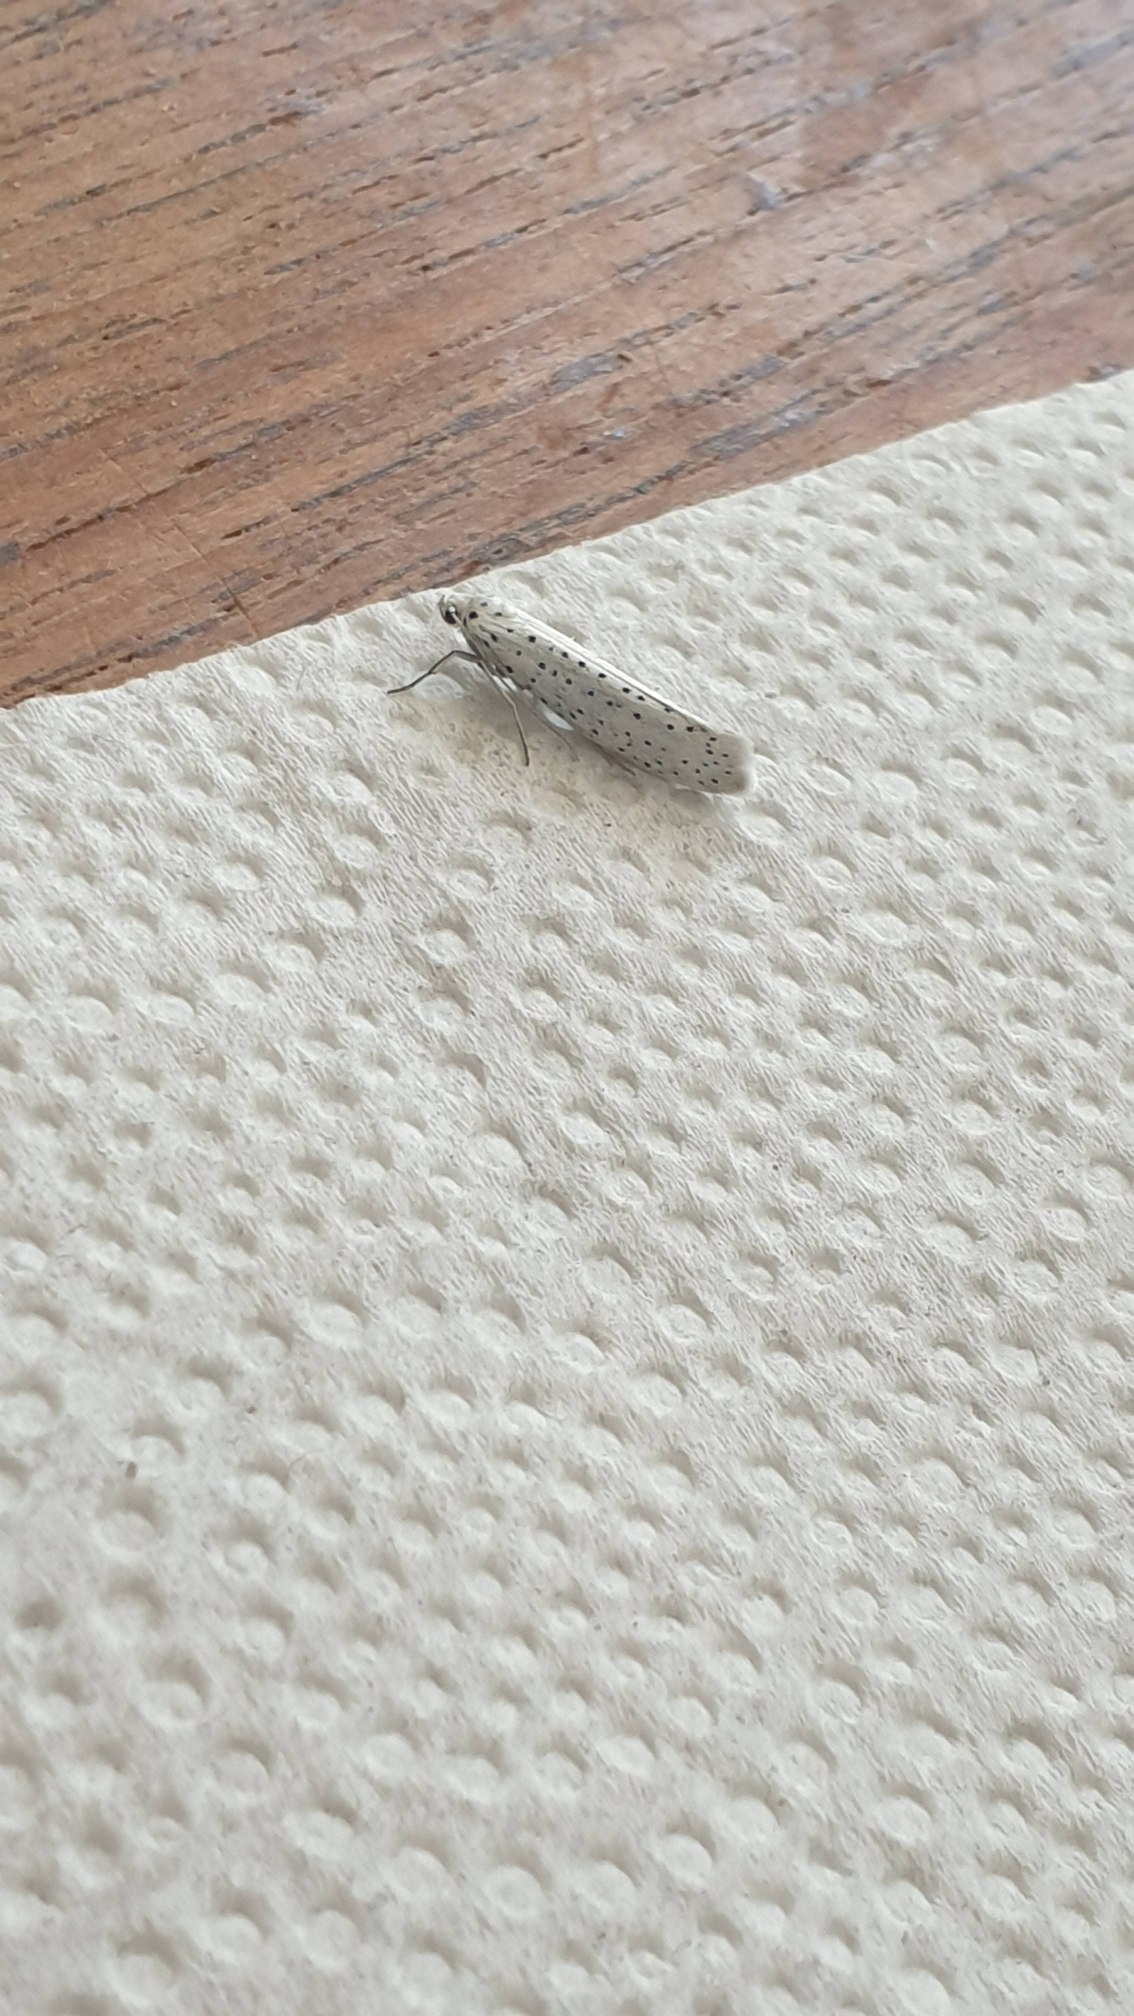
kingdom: Animalia
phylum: Arthropoda
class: Insecta
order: Lepidoptera
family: Yponomeutidae
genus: Yponomeuta
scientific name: Yponomeuta evonymella
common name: Hægspindemøl
